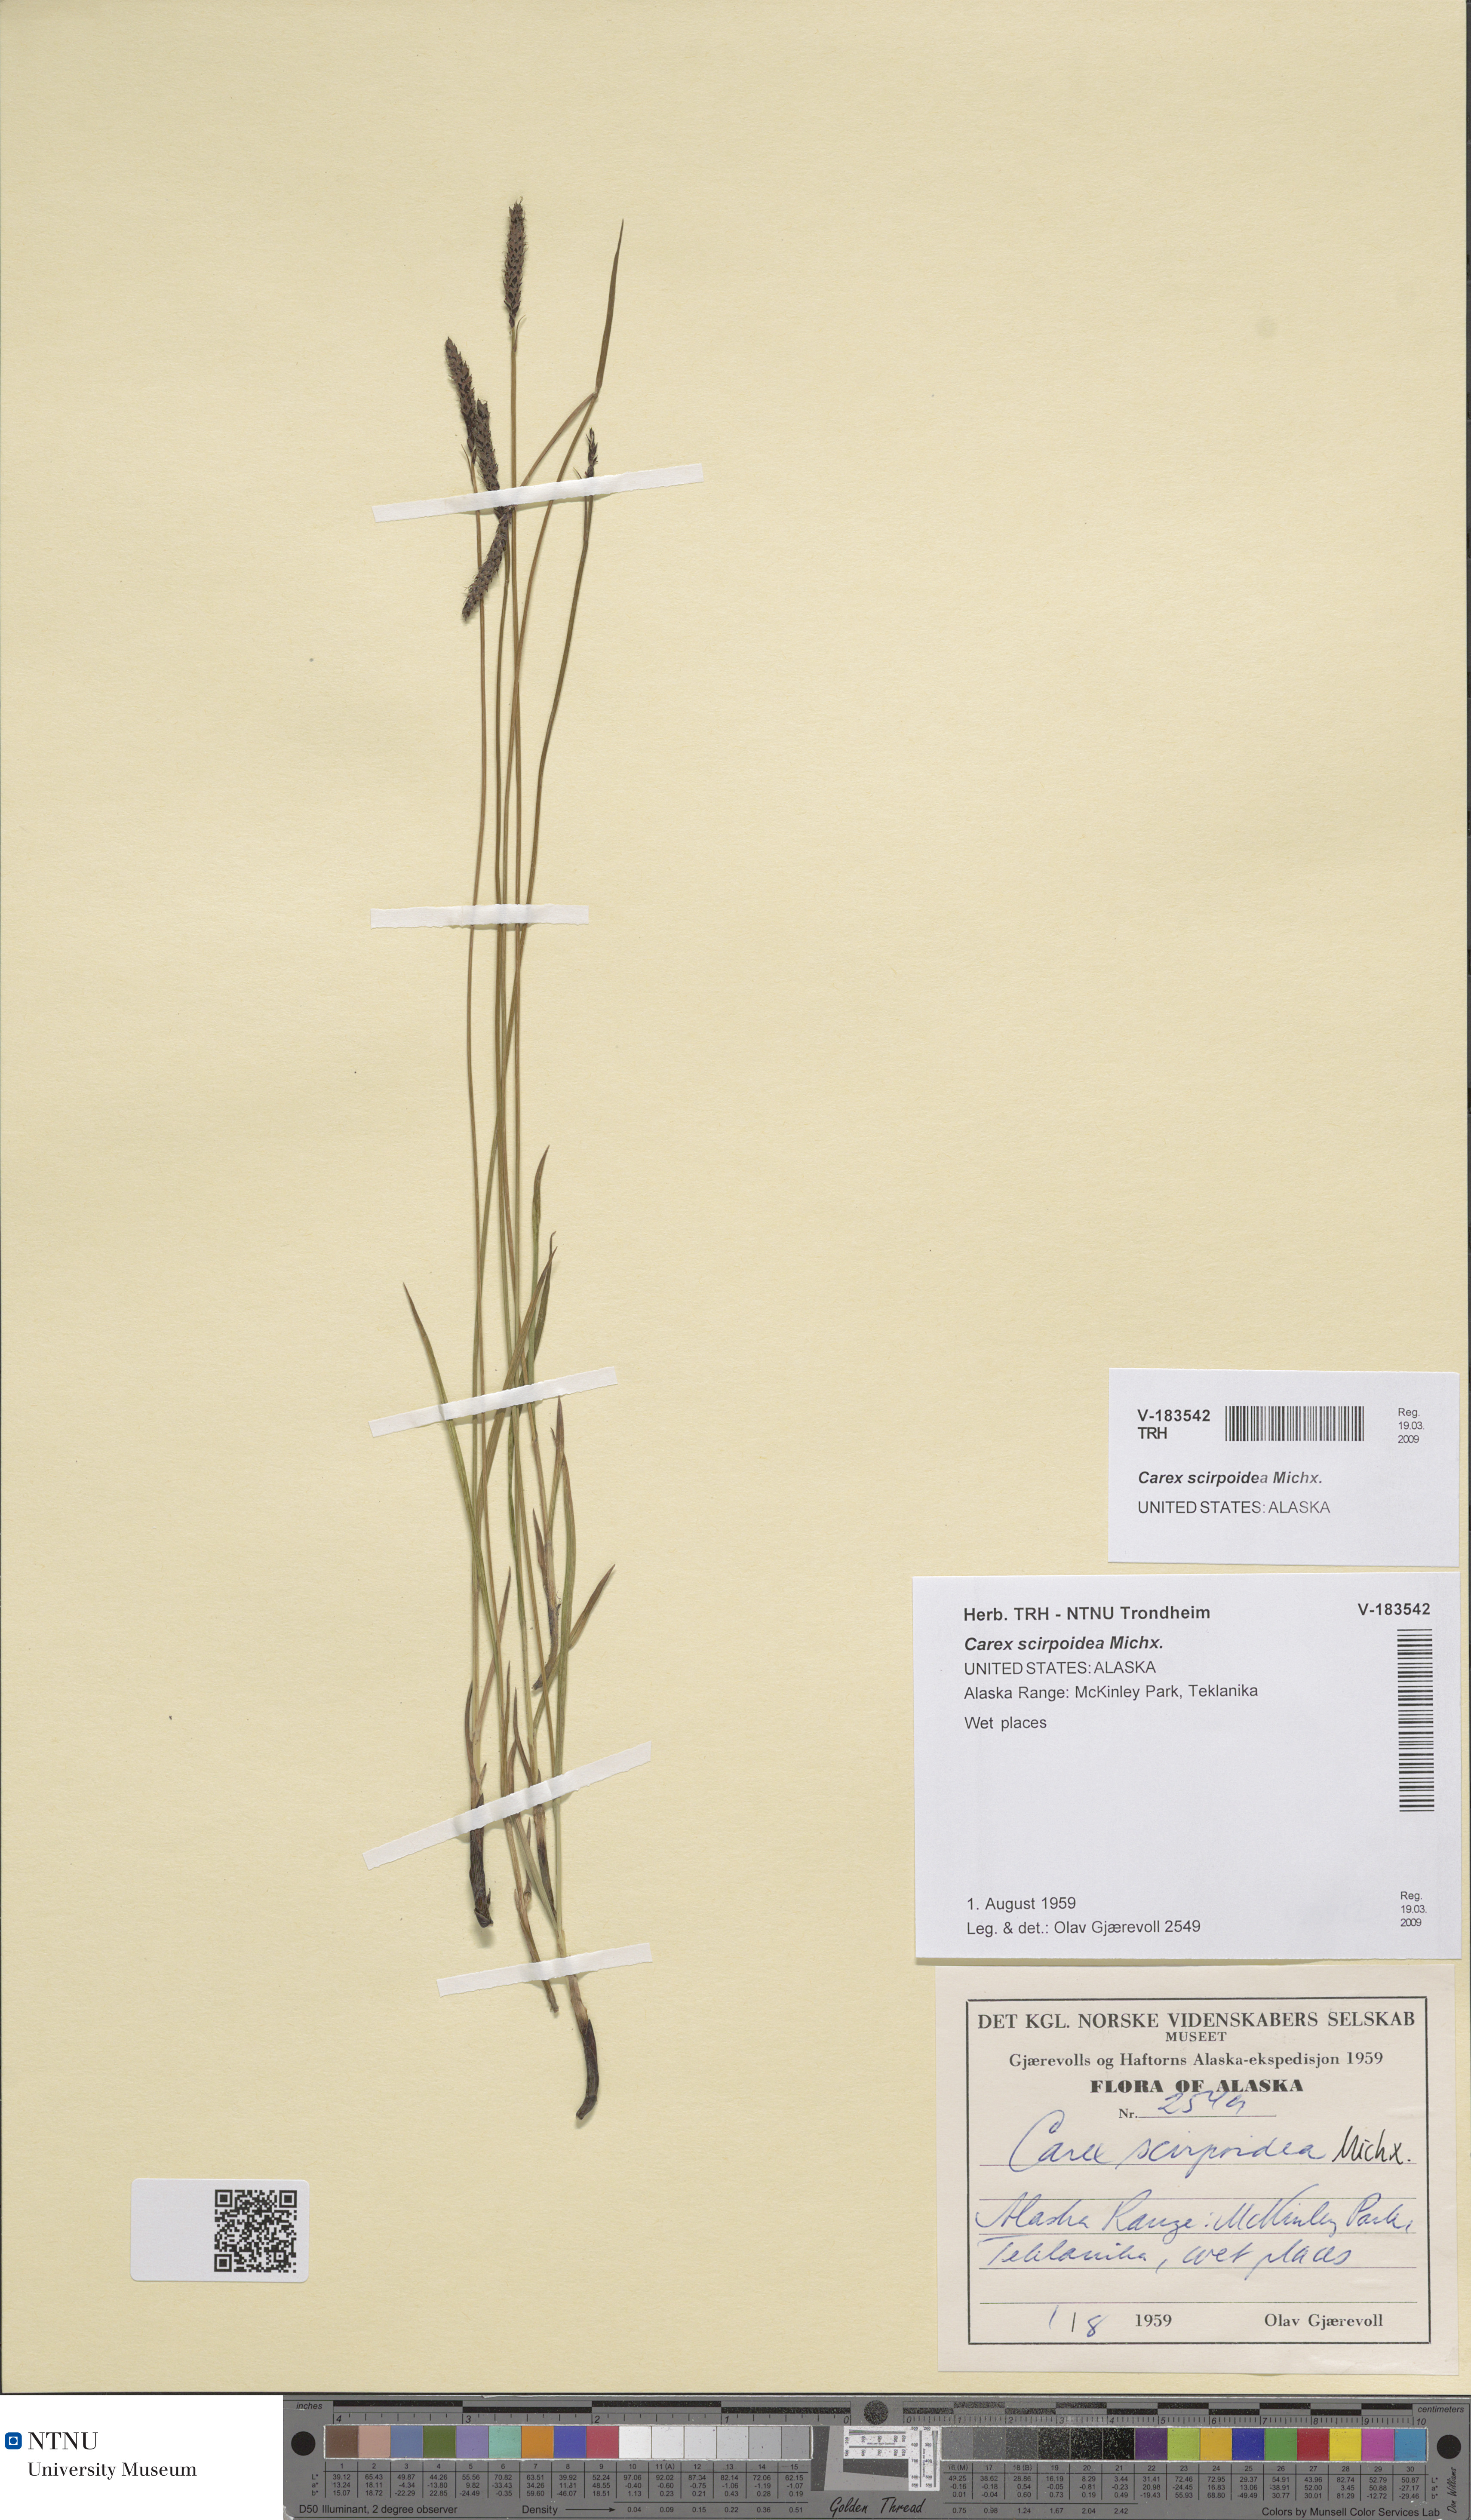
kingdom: Plantae
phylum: Tracheophyta
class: Liliopsida
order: Poales
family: Cyperaceae
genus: Carex
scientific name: Carex scirpoidea
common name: Canada single-spike sedge
